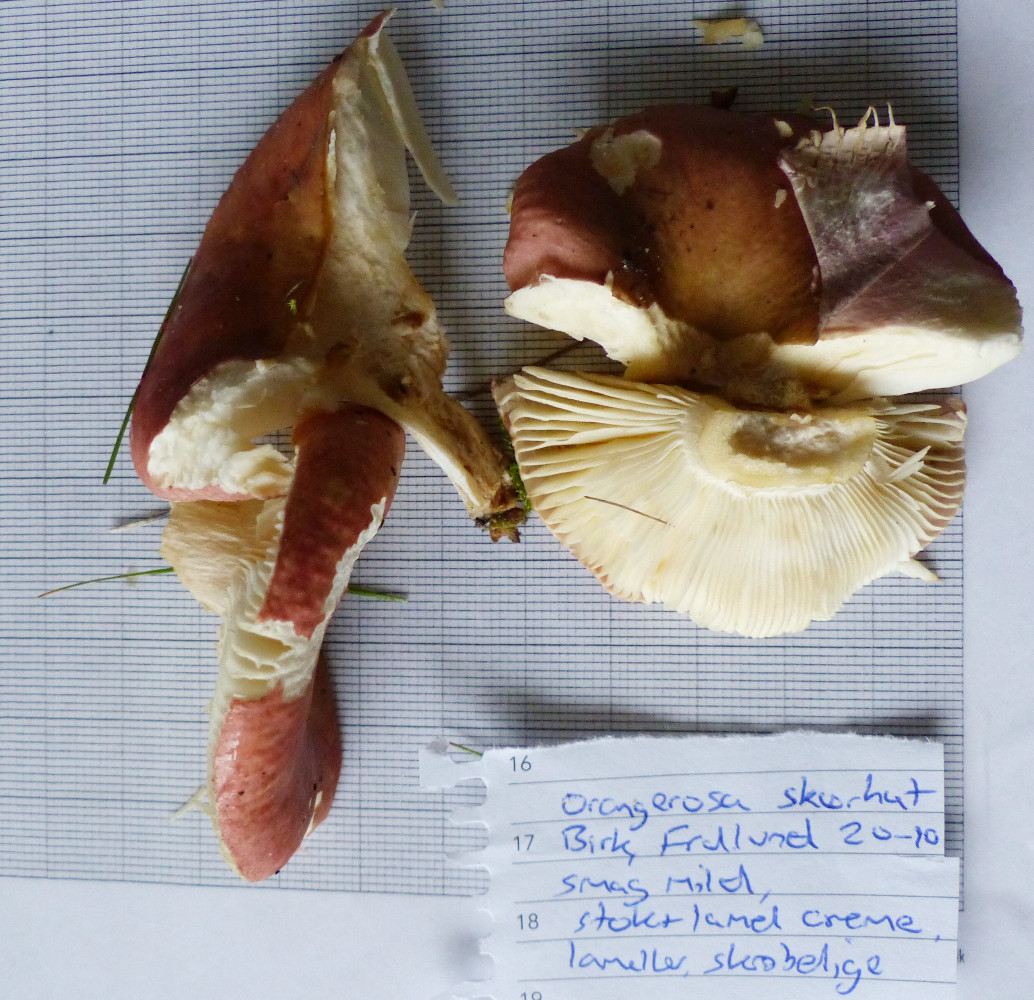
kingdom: Fungi
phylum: Basidiomycota
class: Agaricomycetes
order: Russulales
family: Russulaceae
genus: Russula
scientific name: Russula velenovskyi
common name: orangerød skørhat
